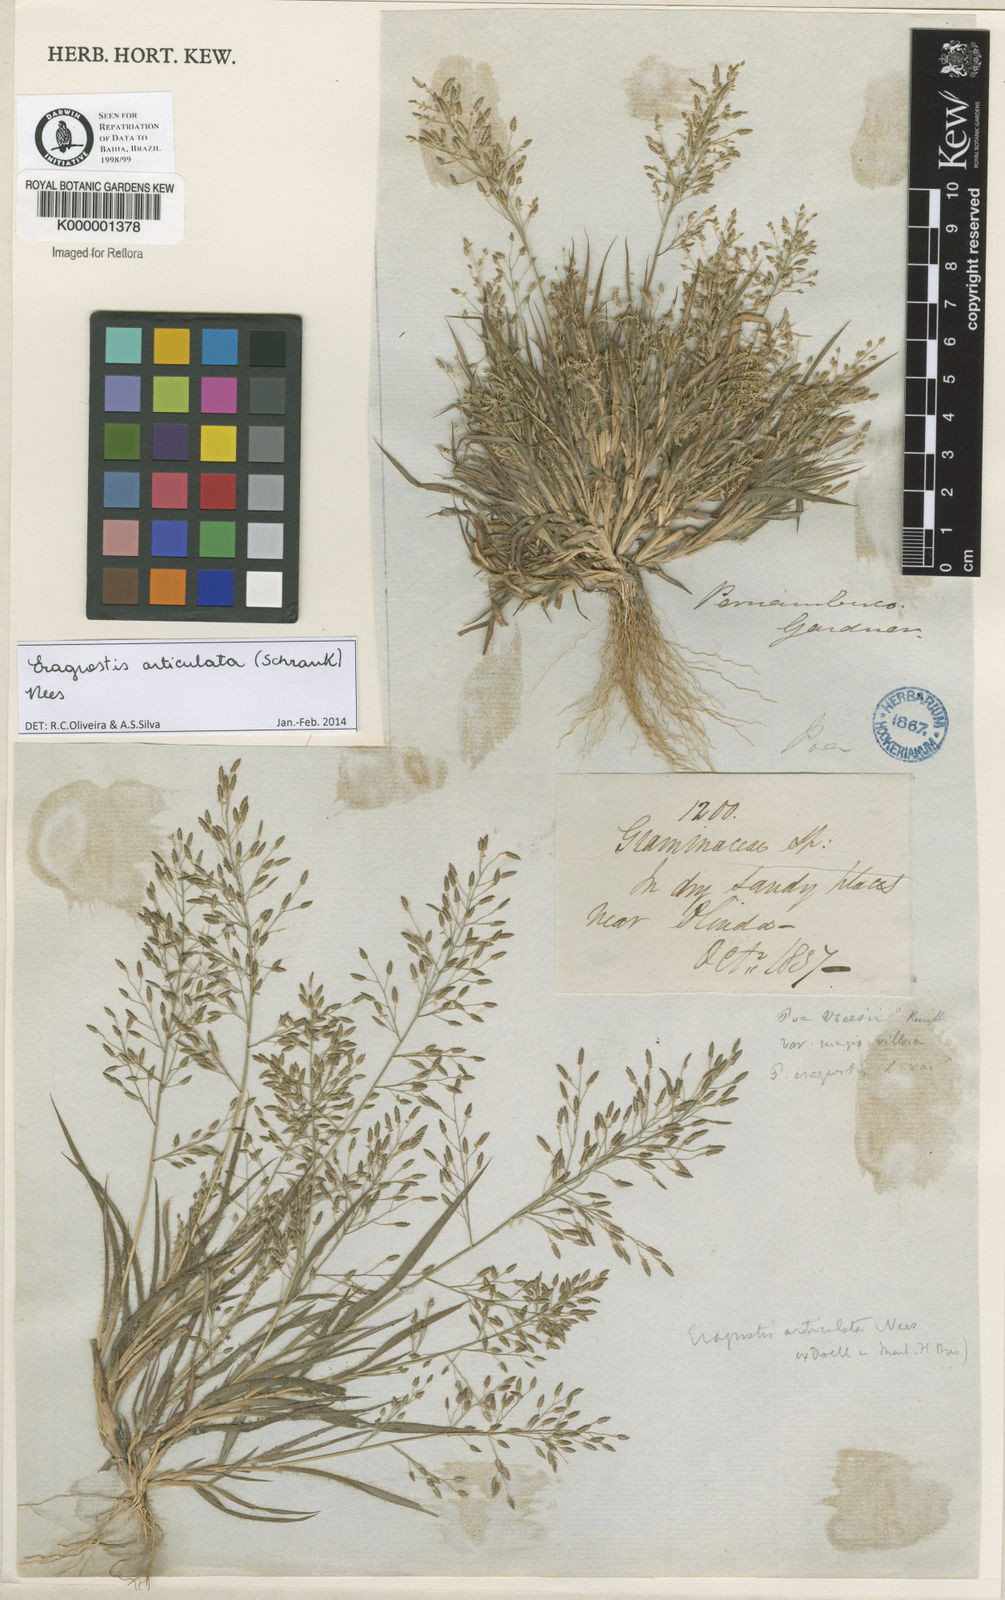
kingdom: Plantae
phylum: Tracheophyta
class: Liliopsida
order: Poales
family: Poaceae
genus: Eragrostis
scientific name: Eragrostis articulata
